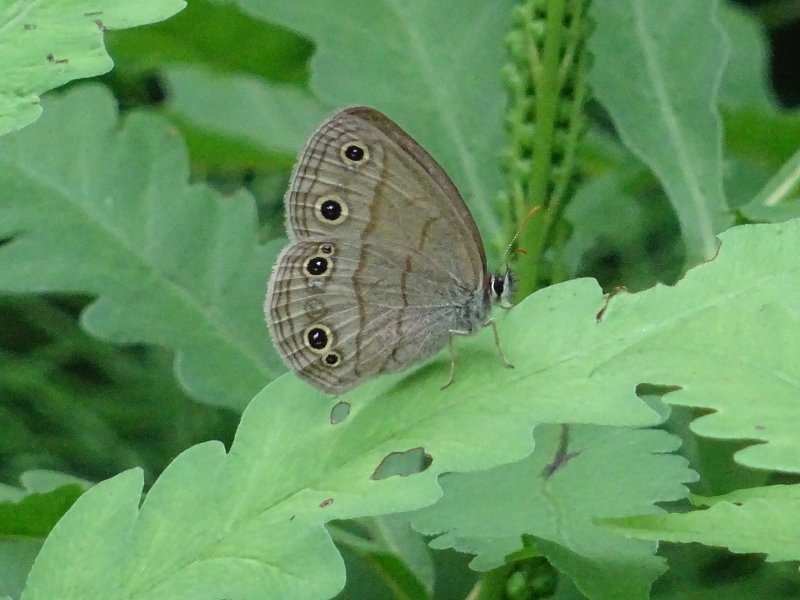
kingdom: Animalia
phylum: Arthropoda
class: Insecta
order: Lepidoptera
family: Nymphalidae
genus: Euptychia
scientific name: Euptychia cymela
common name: Little Wood Satyr
